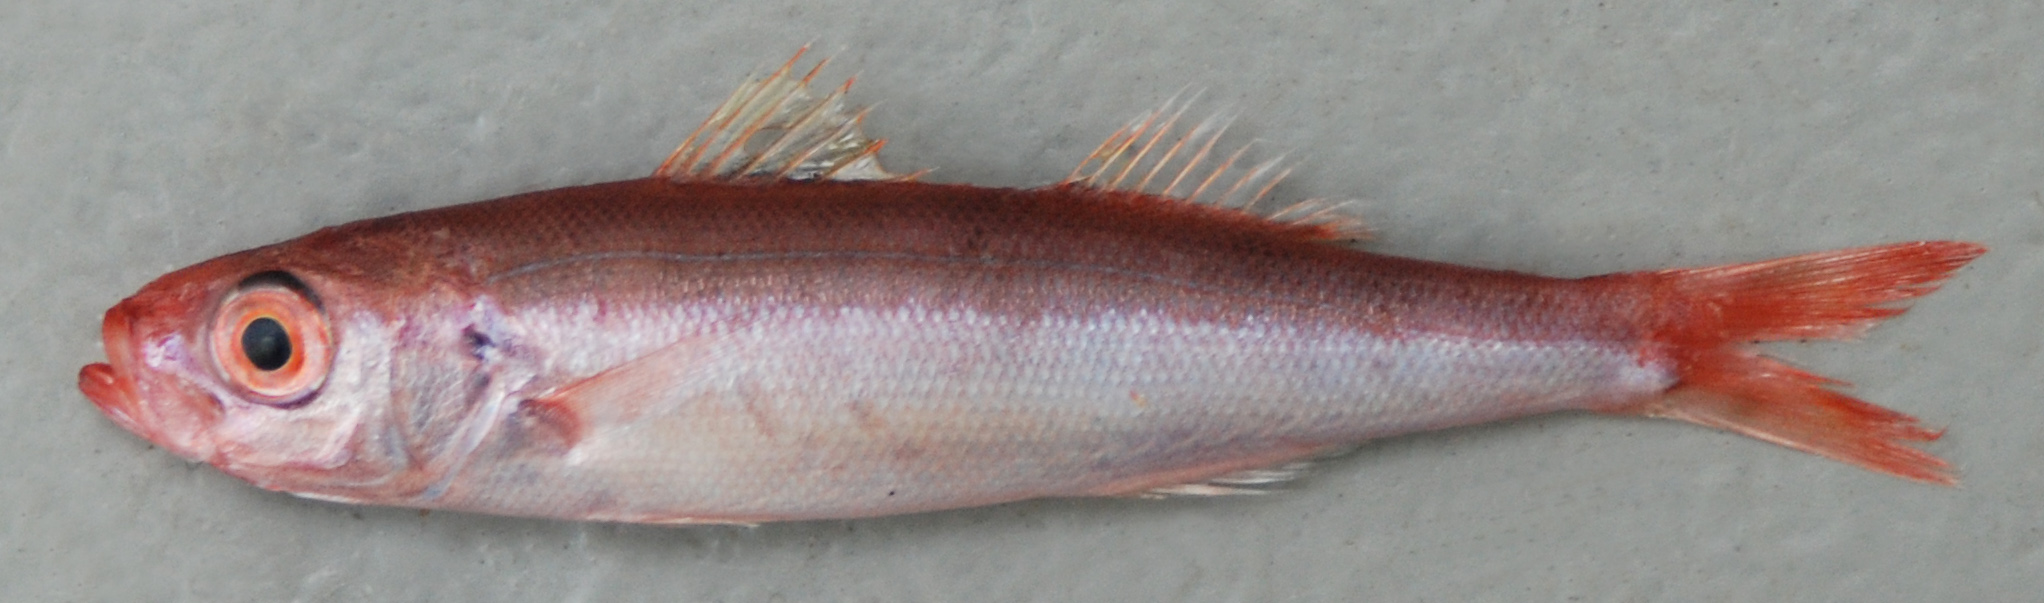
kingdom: Animalia
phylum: Chordata
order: Perciformes
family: Emmelichthyidae
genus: Emmelichthys
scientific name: Emmelichthys nitidus
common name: Cape bonnetmouth
